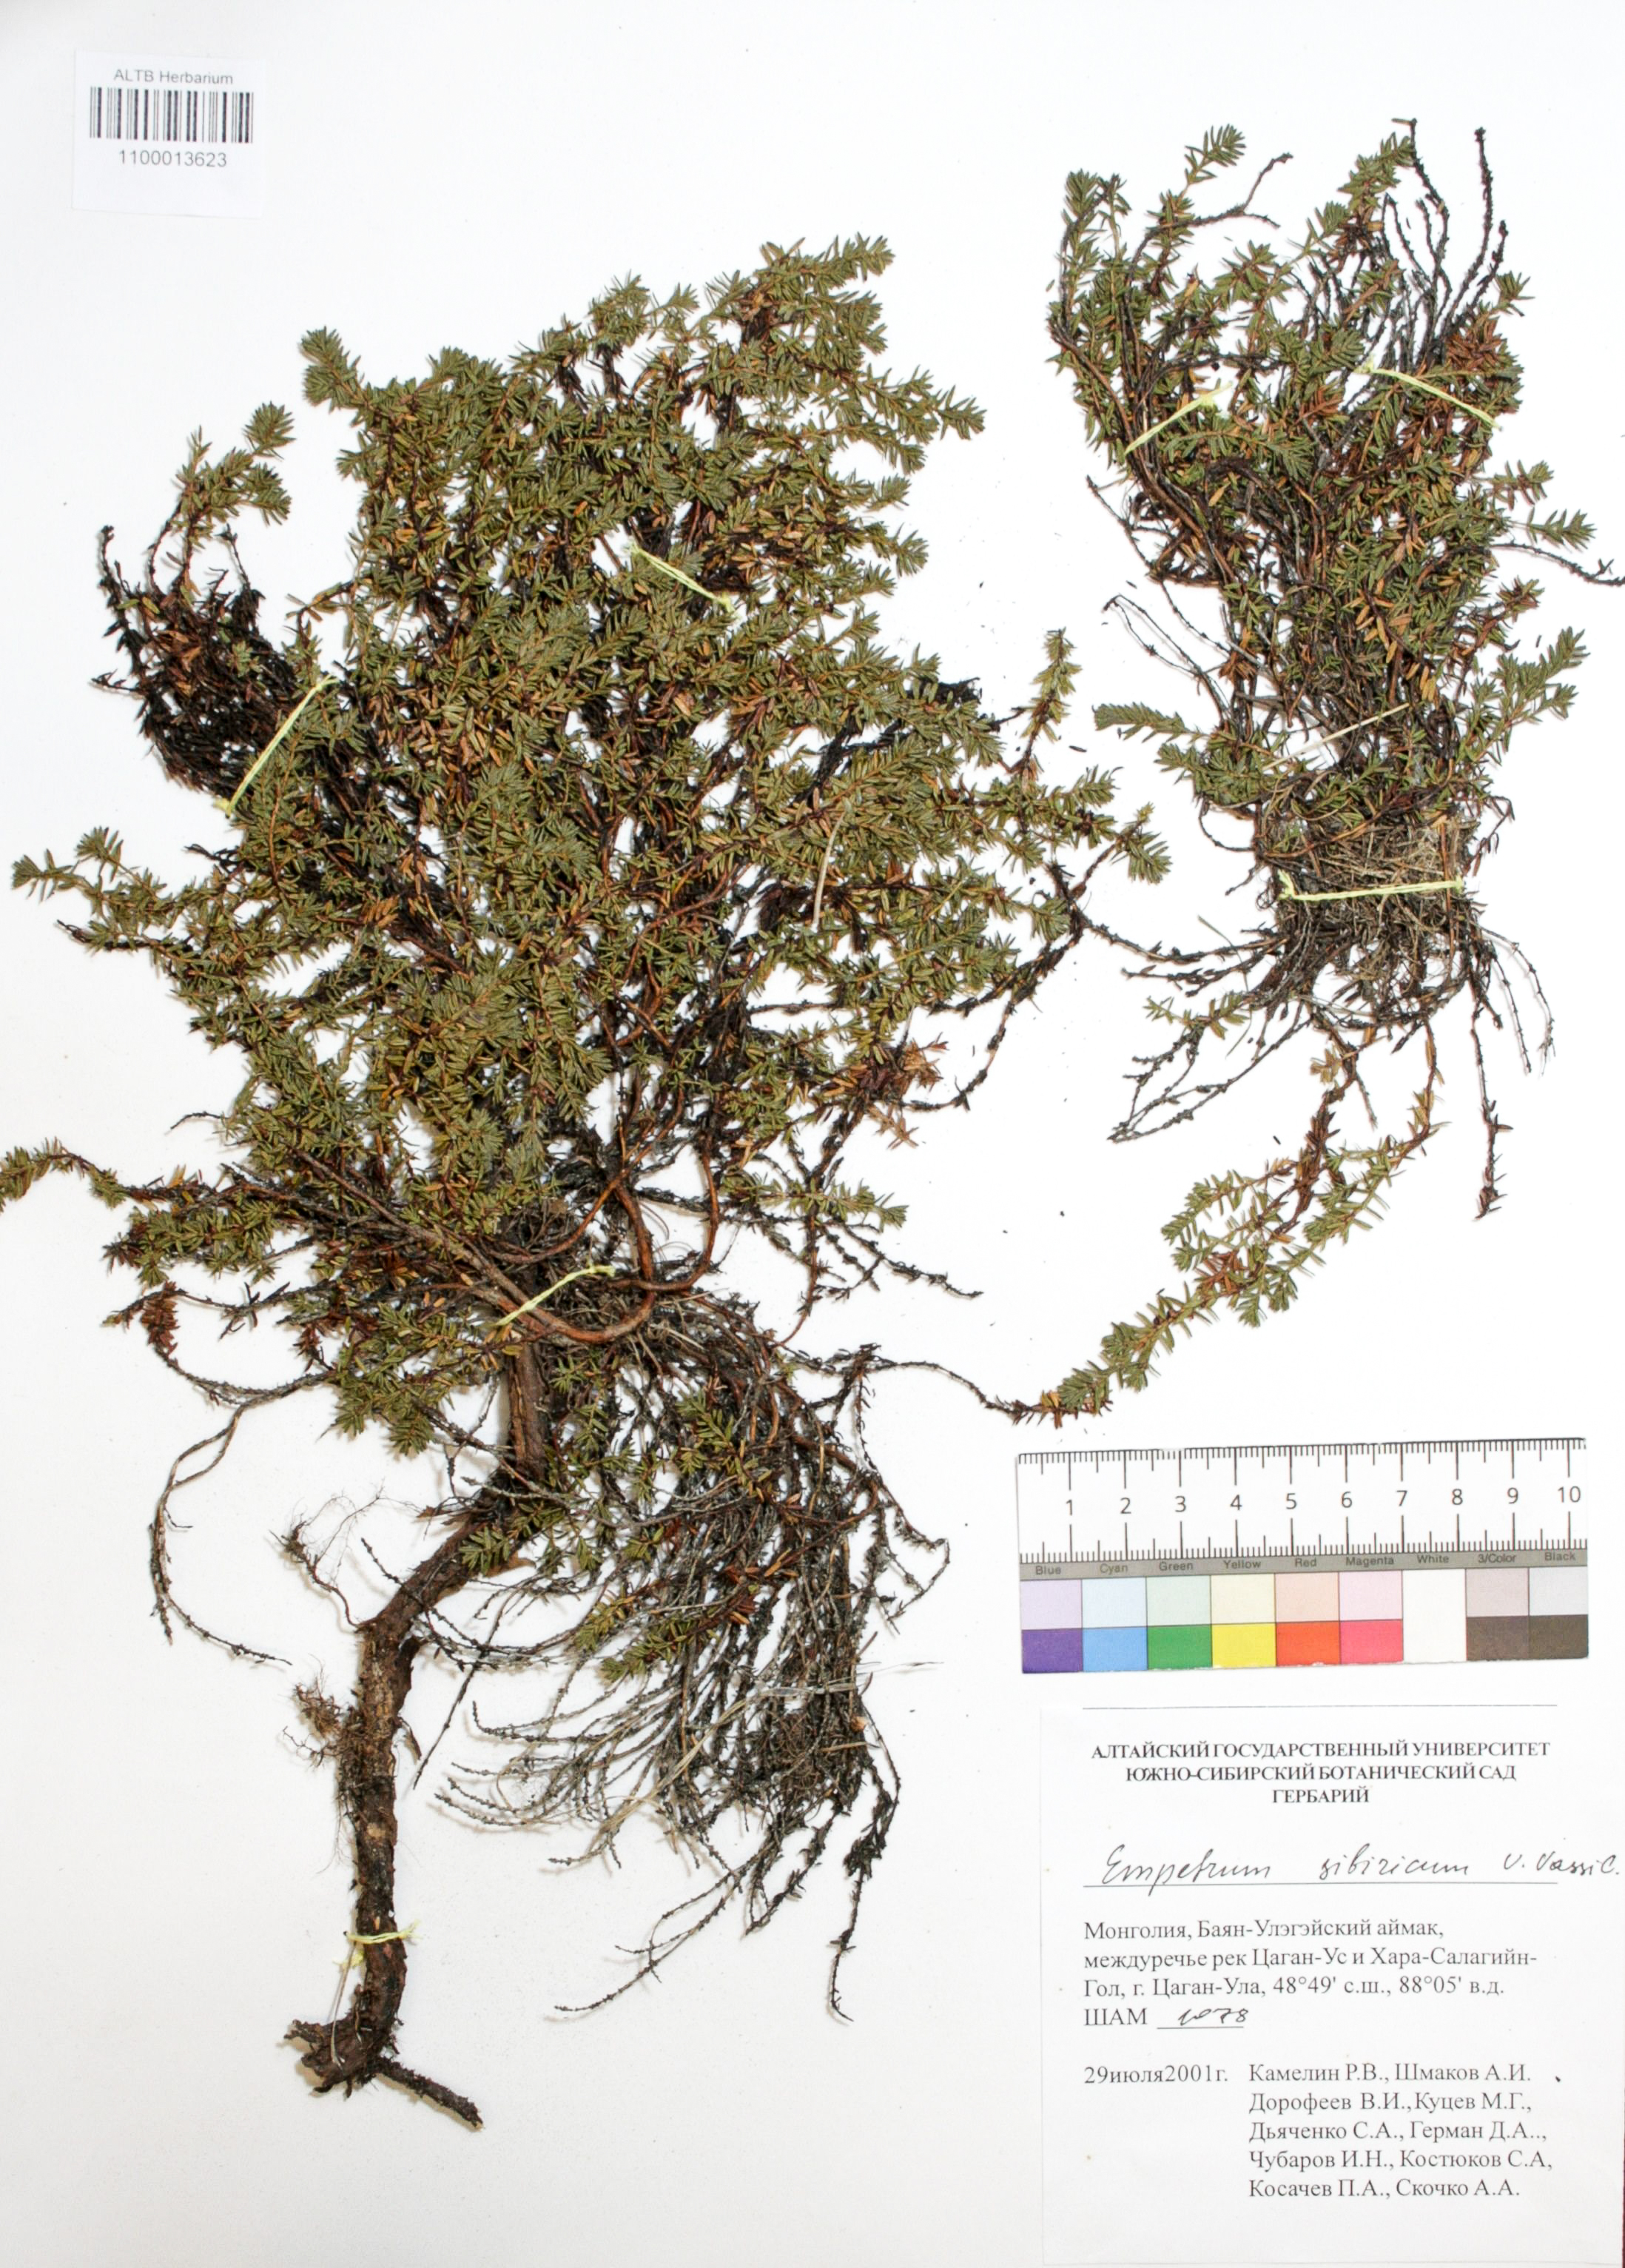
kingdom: Plantae
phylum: Tracheophyta
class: Magnoliopsida
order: Ericales
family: Ericaceae
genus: Empetrum
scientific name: Empetrum nigrum
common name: Black crowberry
